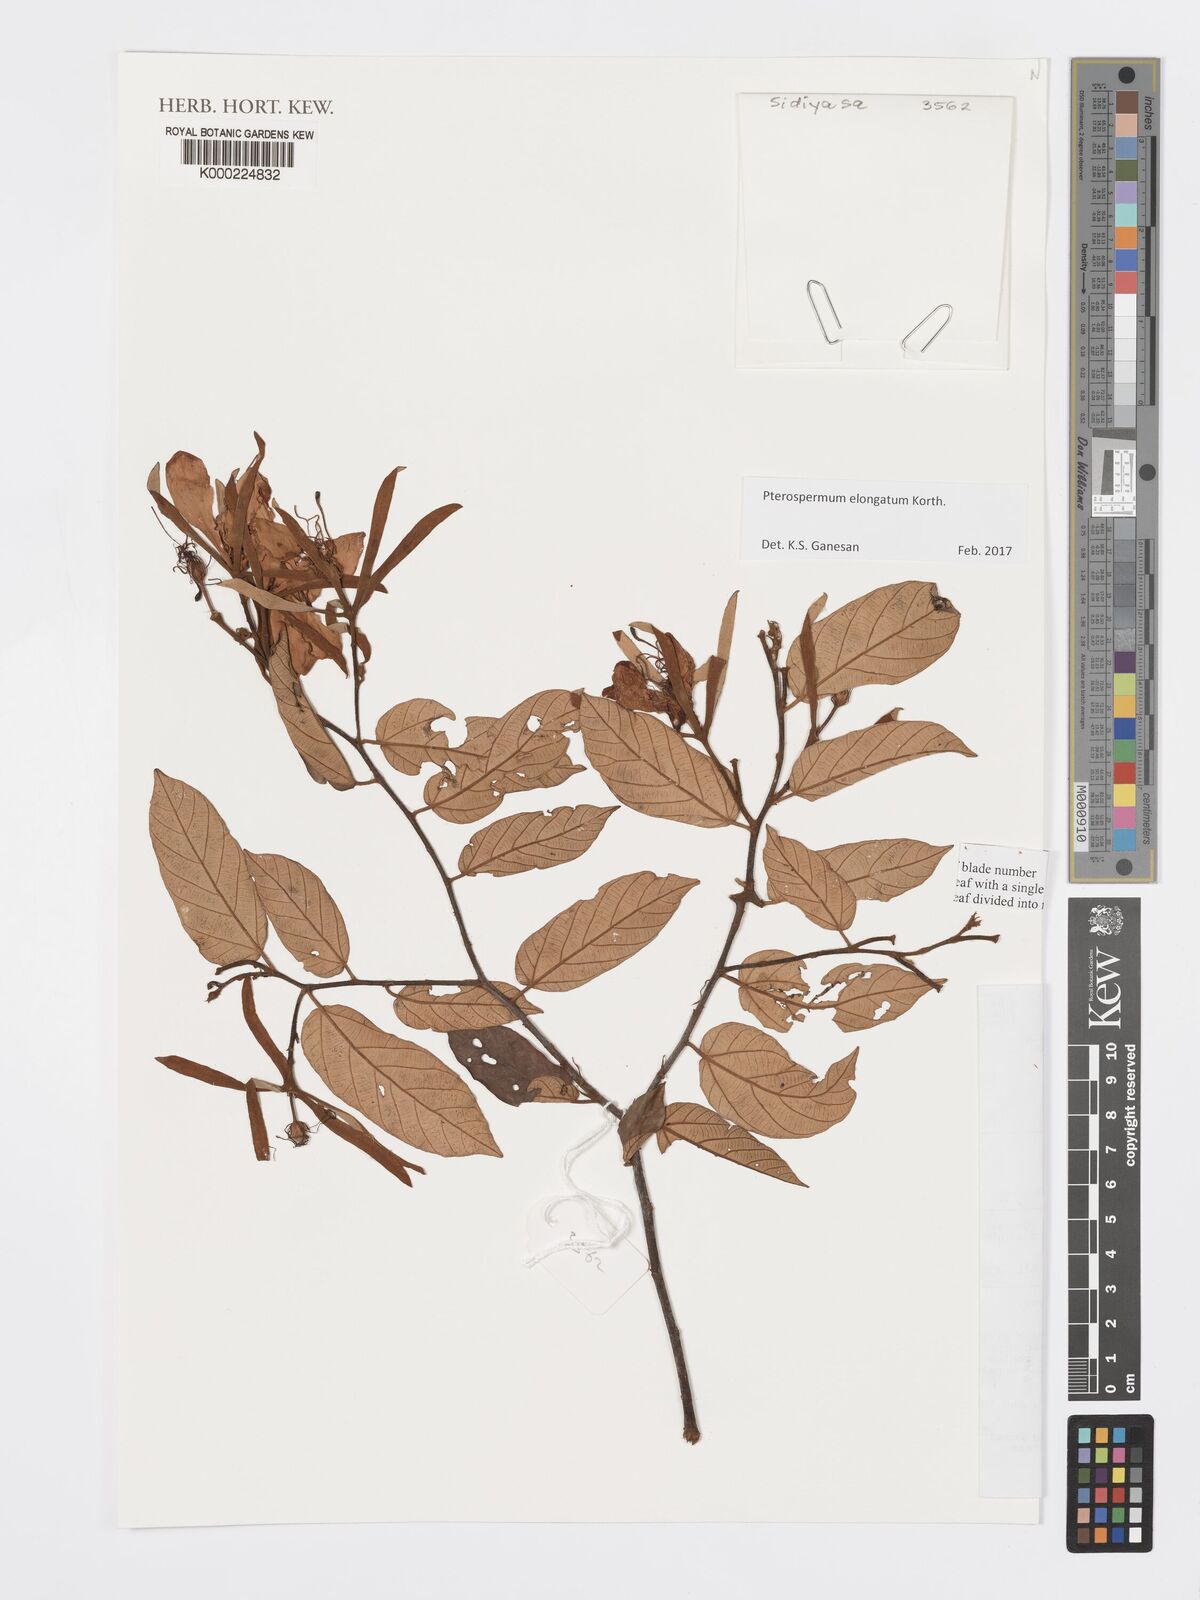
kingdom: Plantae
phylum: Tracheophyta
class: Magnoliopsida
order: Malvales
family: Malvaceae
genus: Pterospermum
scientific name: Pterospermum
